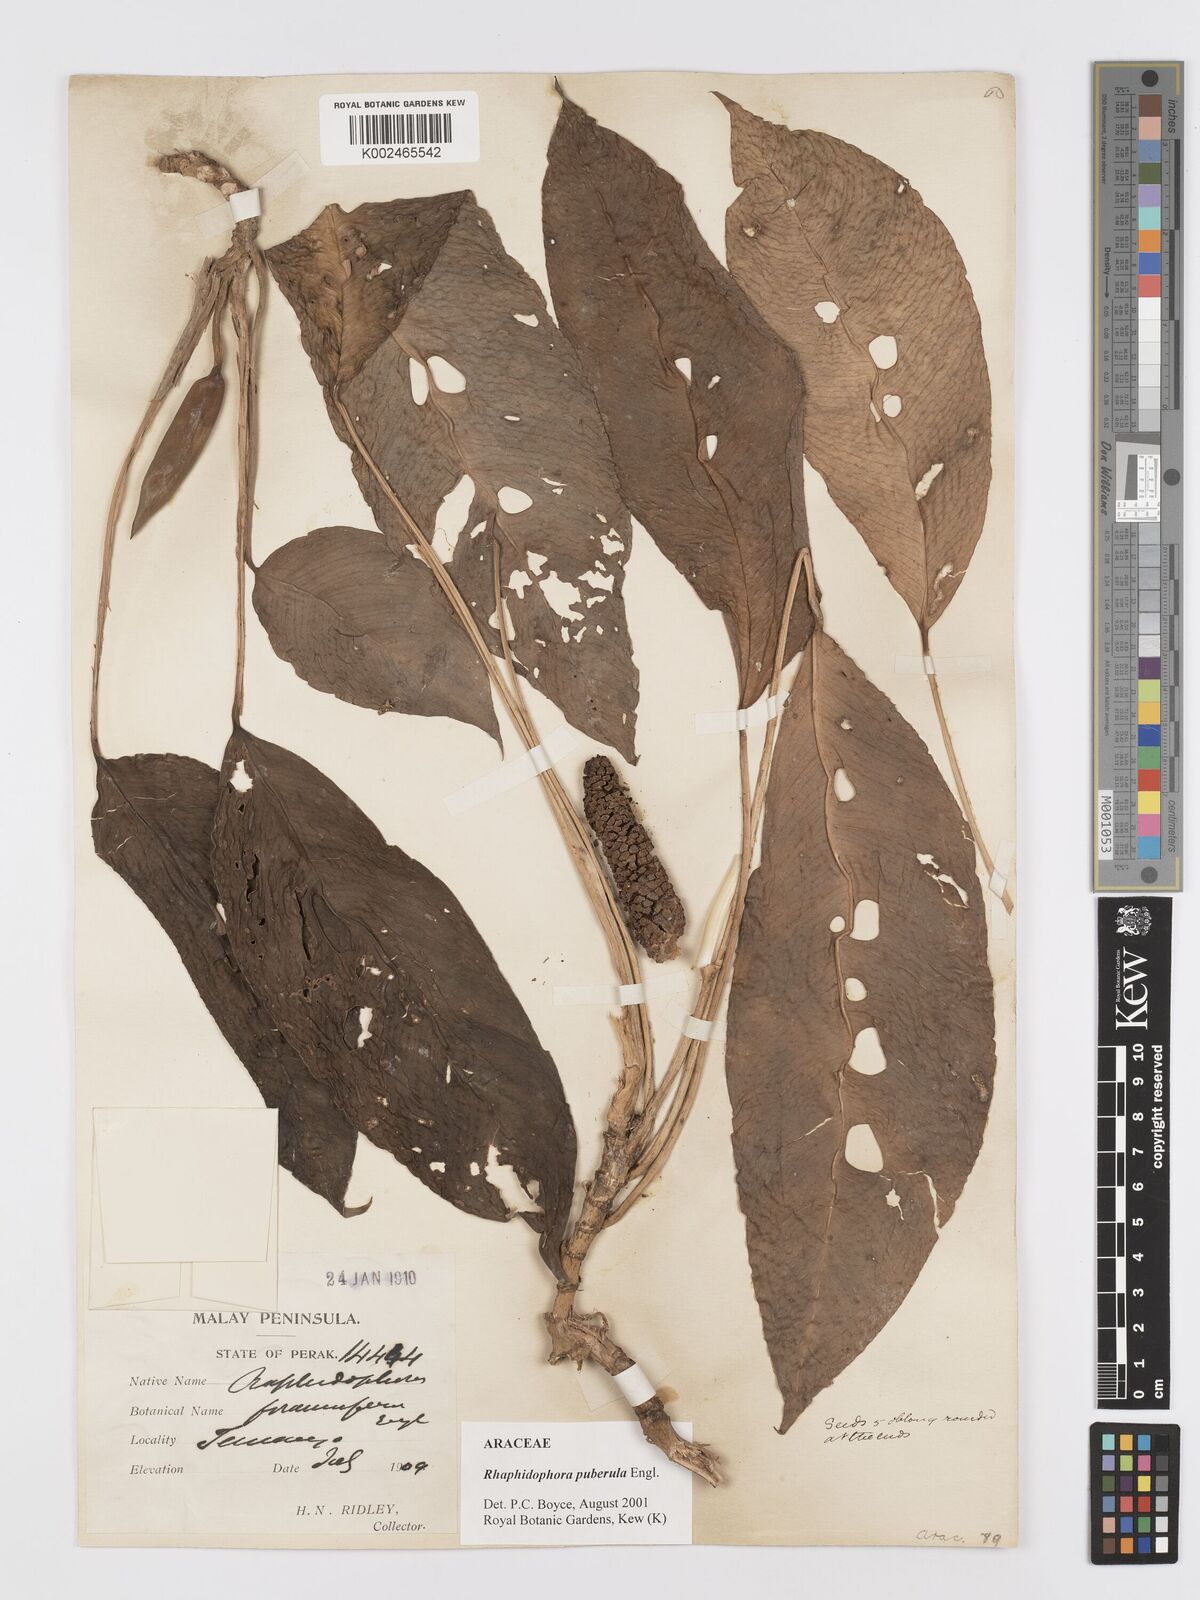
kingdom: Plantae
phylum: Tracheophyta
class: Liliopsida
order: Alismatales
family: Araceae
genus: Rhaphidophora
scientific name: Rhaphidophora puberula
